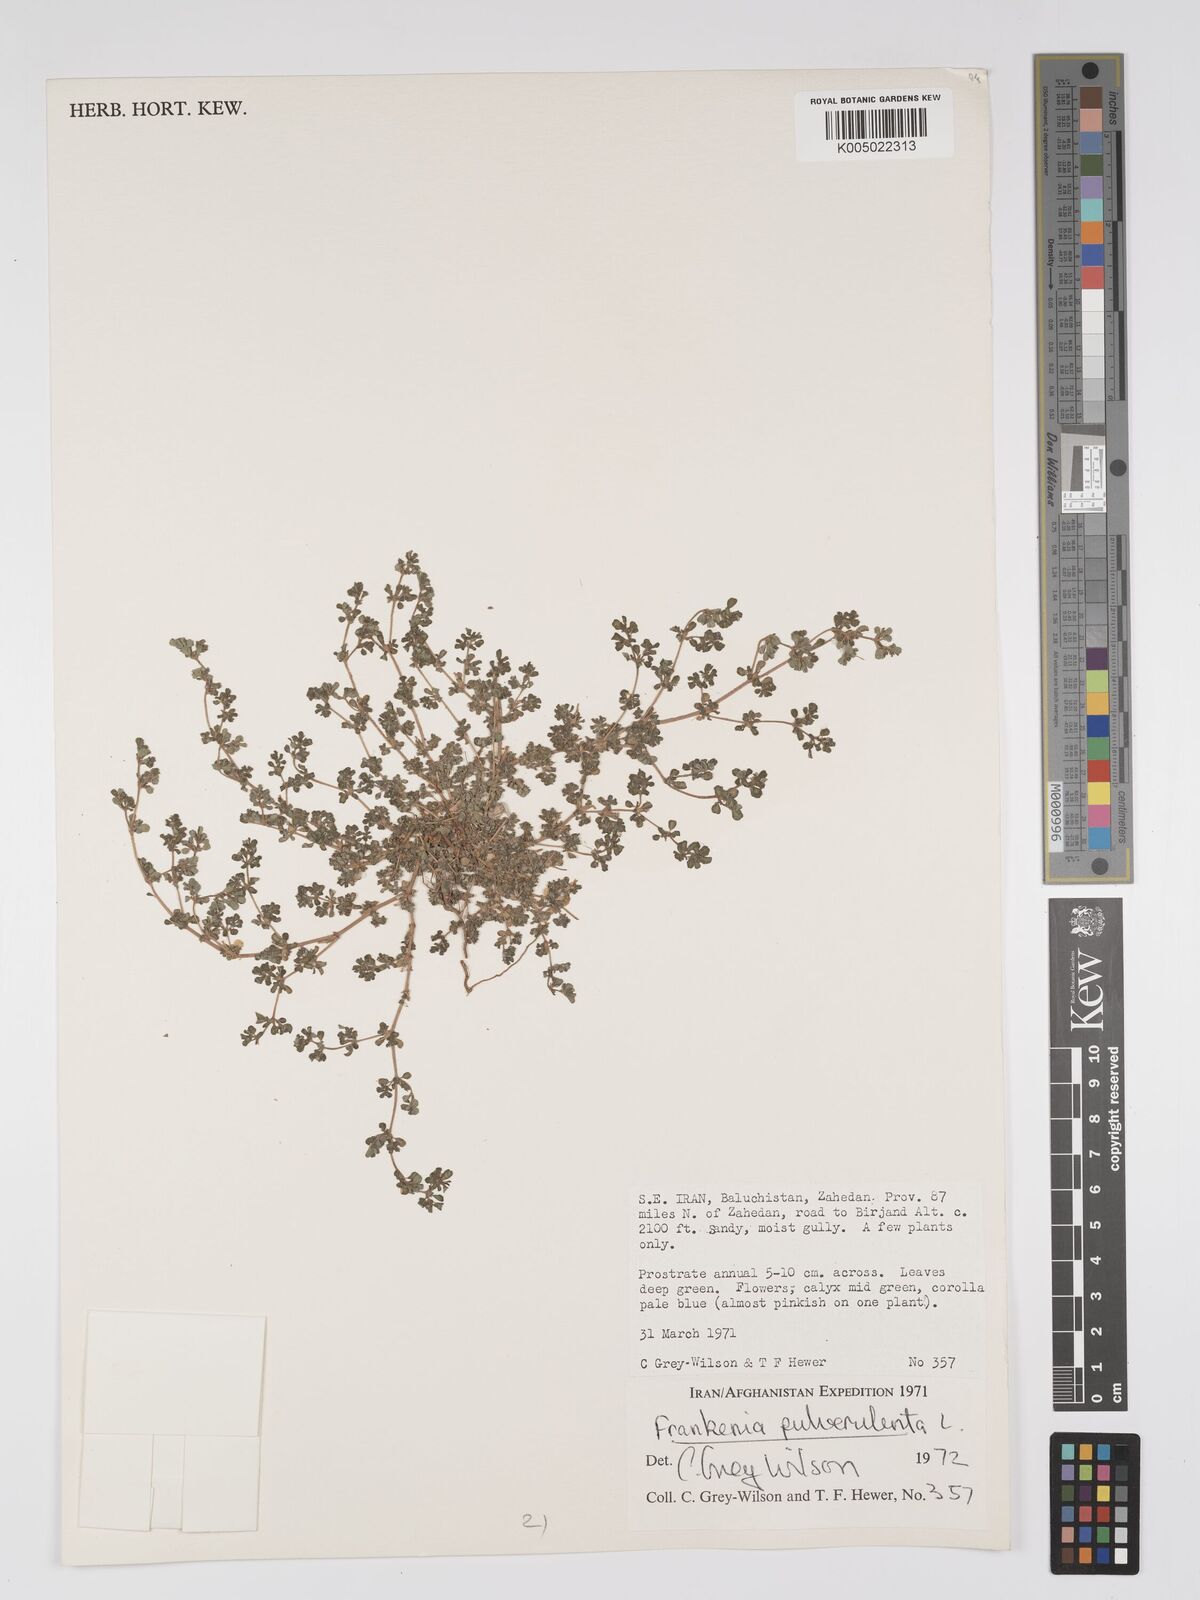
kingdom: Plantae
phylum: Tracheophyta
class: Magnoliopsida
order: Caryophyllales
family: Frankeniaceae
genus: Frankenia
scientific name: Frankenia pulverulenta
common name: European seaheath
